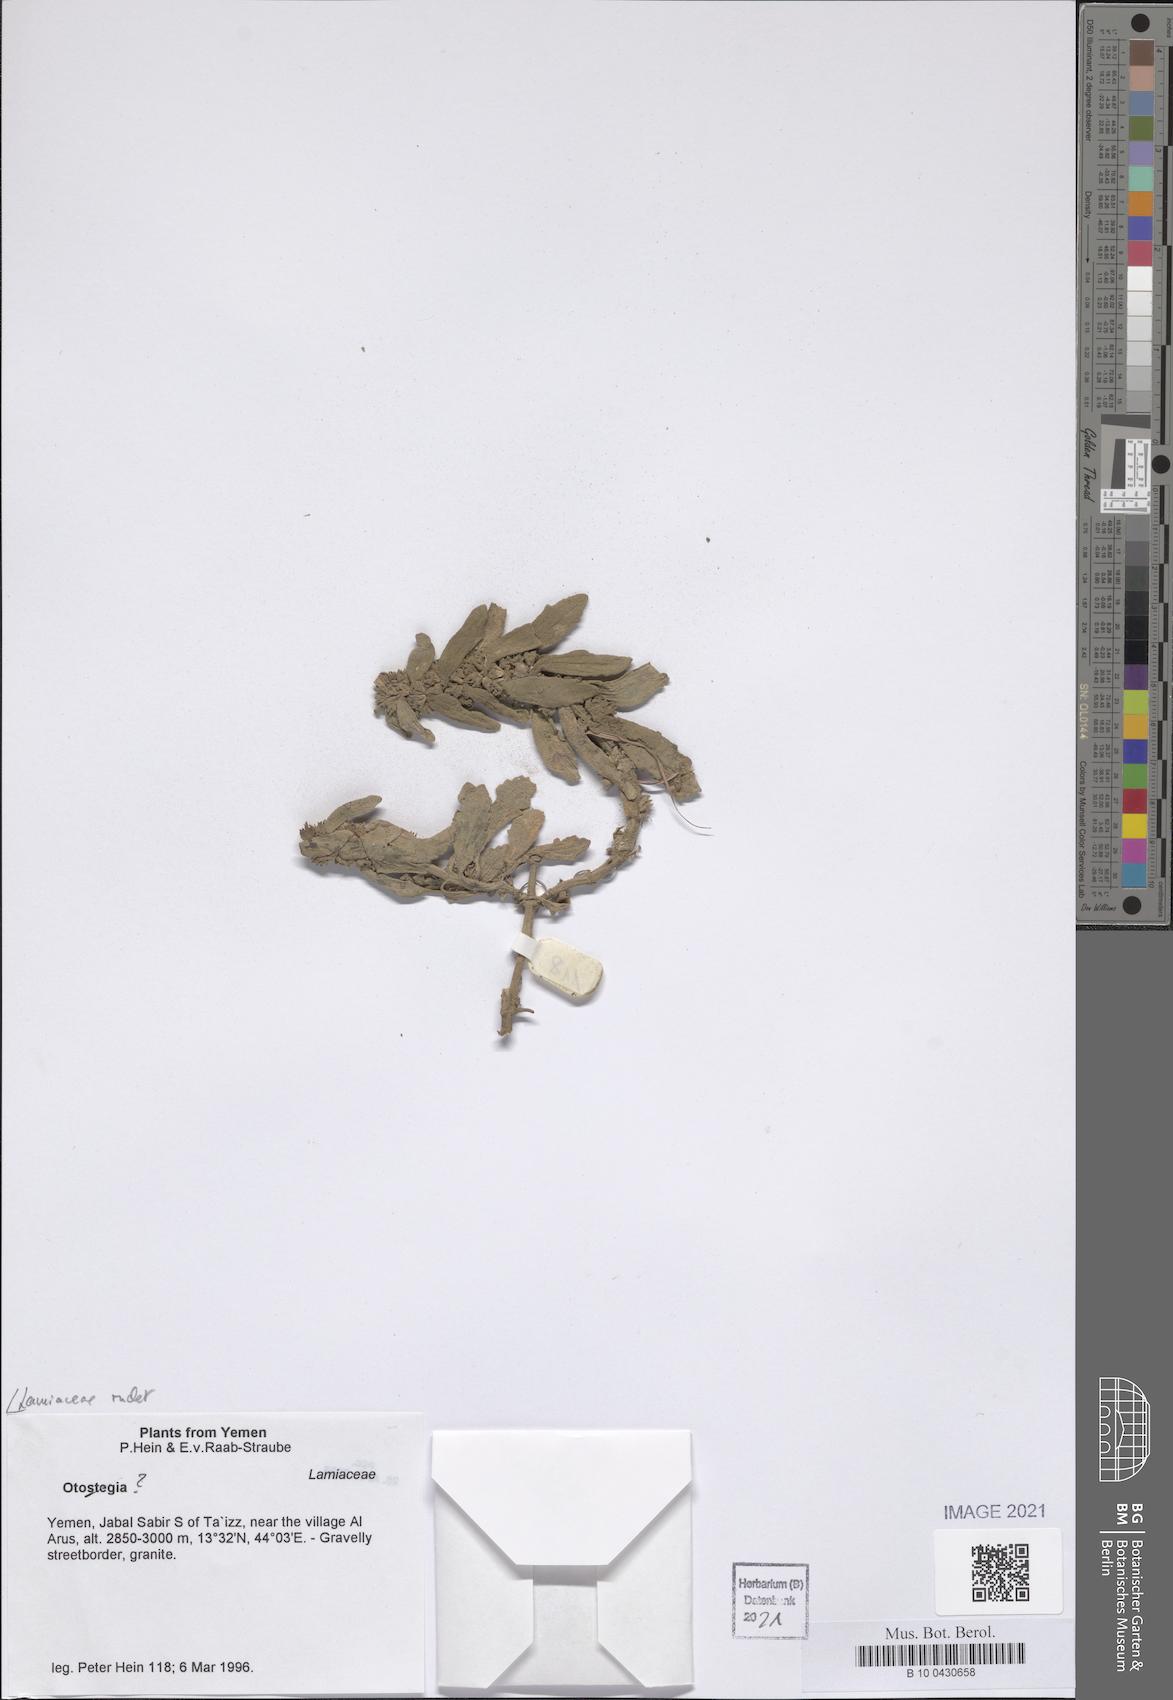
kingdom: Plantae
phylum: Tracheophyta
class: Magnoliopsida
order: Lamiales
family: Lamiaceae
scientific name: Lamiaceae
